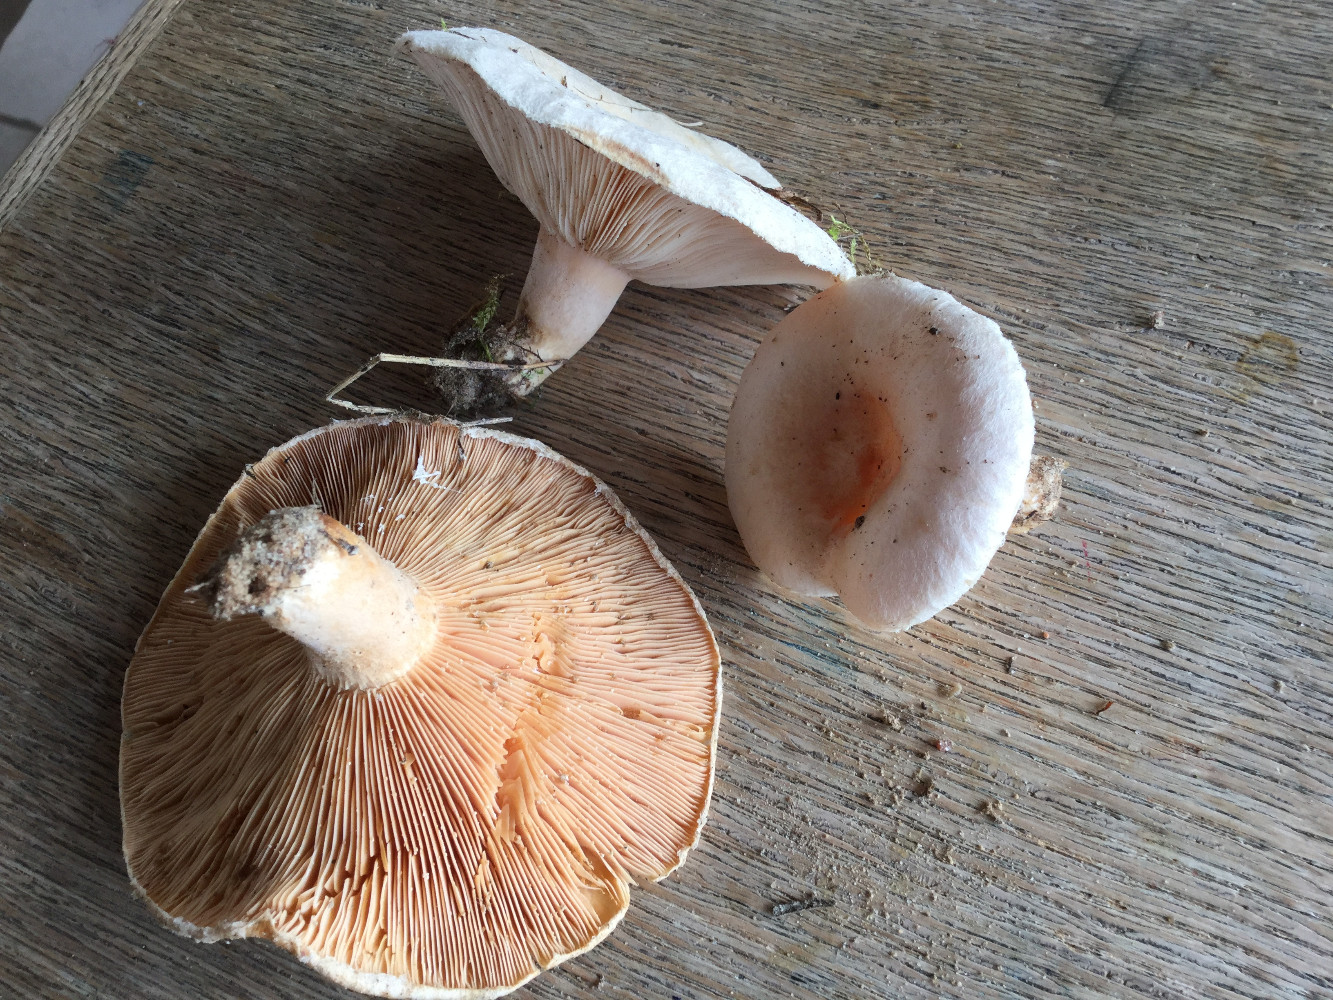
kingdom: Fungi
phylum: Basidiomycota
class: Agaricomycetes
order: Russulales
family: Russulaceae
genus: Lactarius
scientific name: Lactarius pubescens
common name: dunet mælkehat
